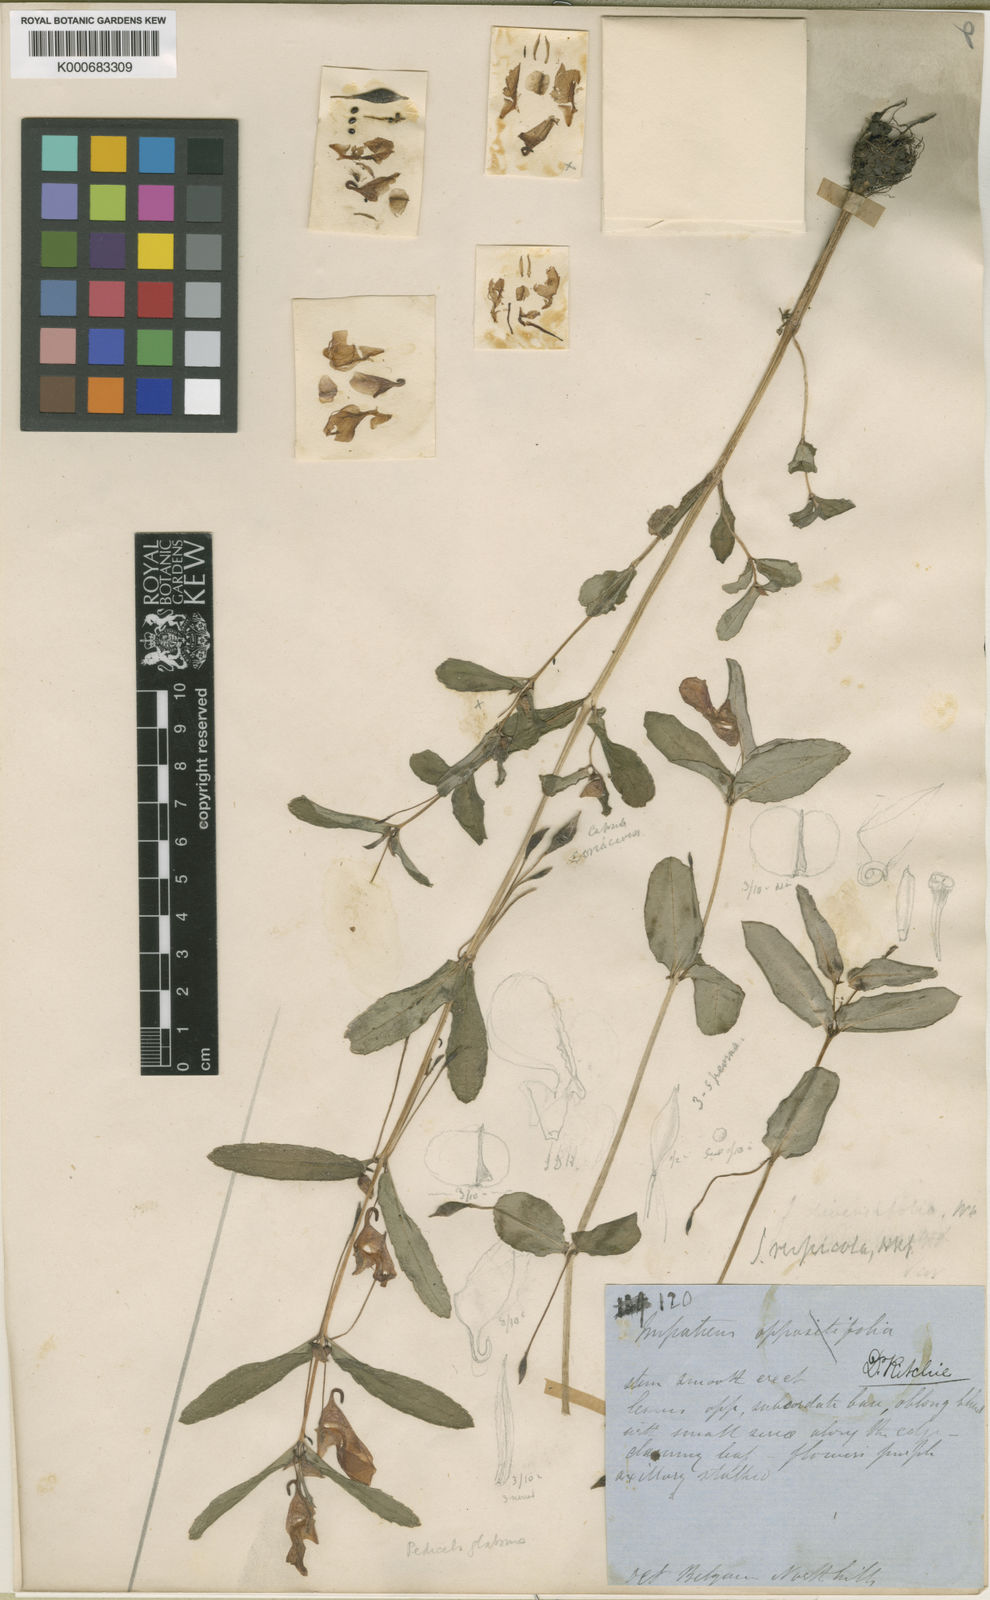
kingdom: Plantae
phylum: Tracheophyta
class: Magnoliopsida
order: Ericales
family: Balsaminaceae
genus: Impatiens
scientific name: Impatiens chinensis
